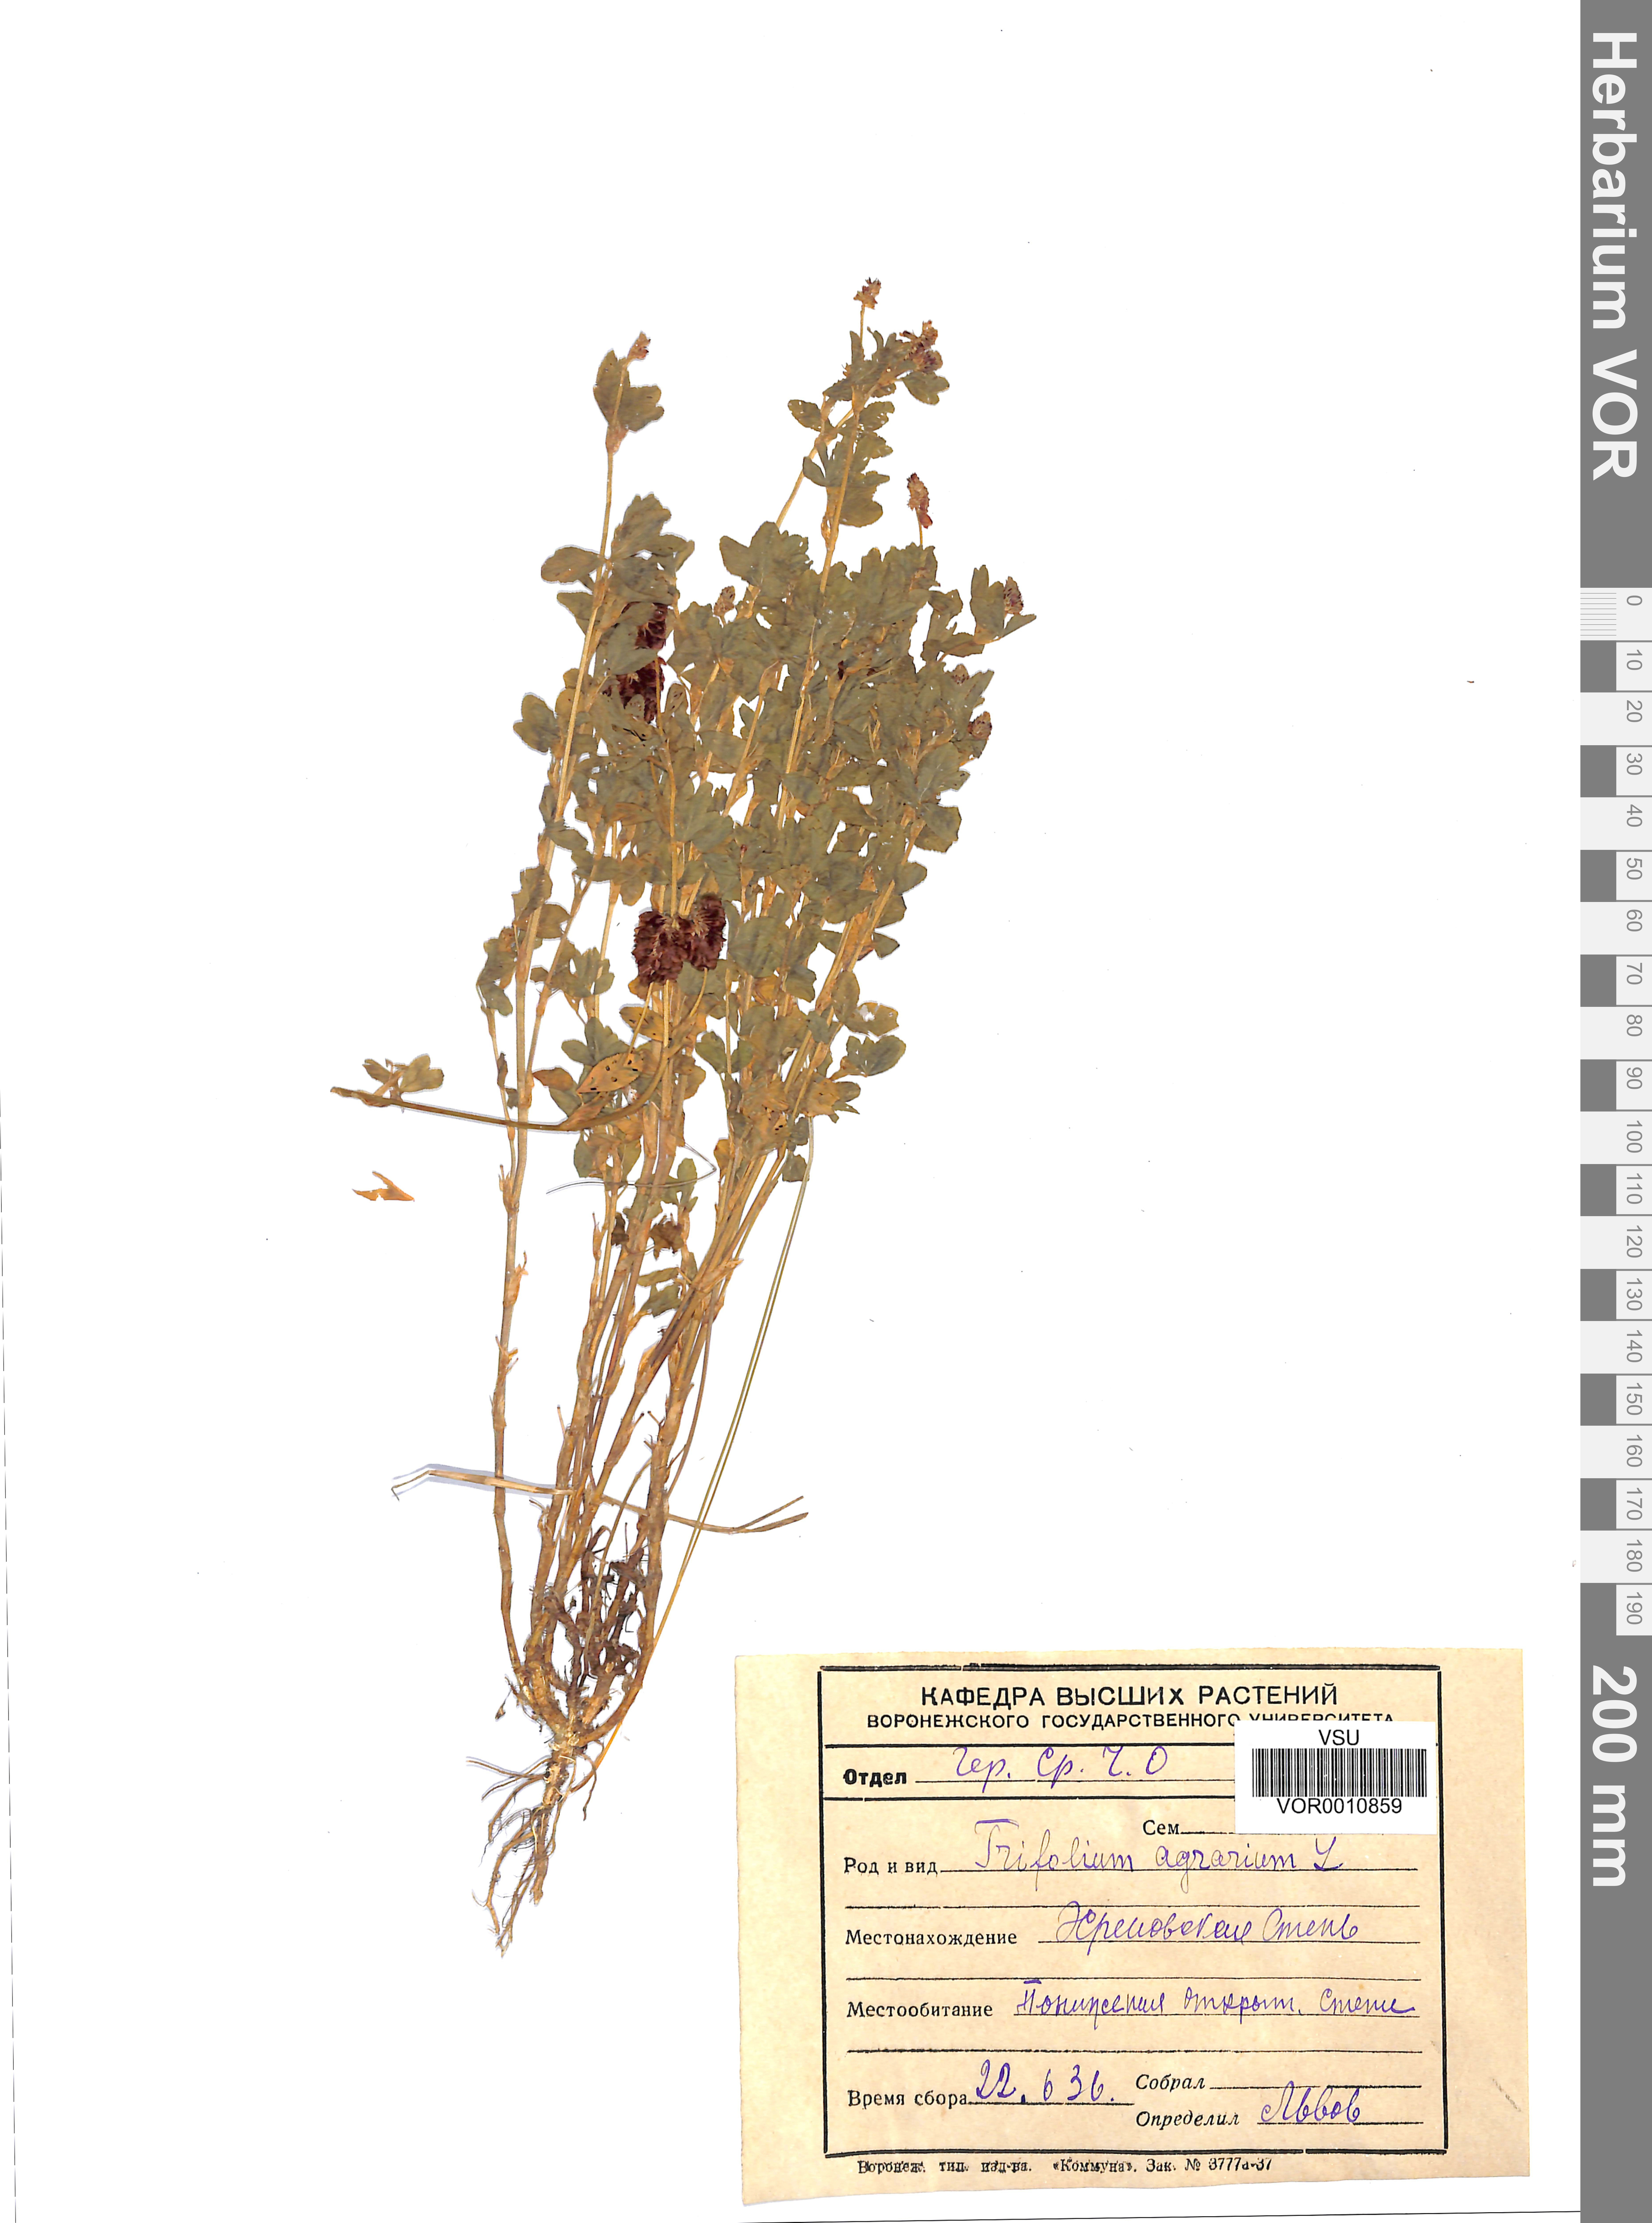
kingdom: Plantae
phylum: Tracheophyta
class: Magnoliopsida
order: Fabales
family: Fabaceae
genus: Trifolium
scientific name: Trifolium aureum
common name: Golden clover
